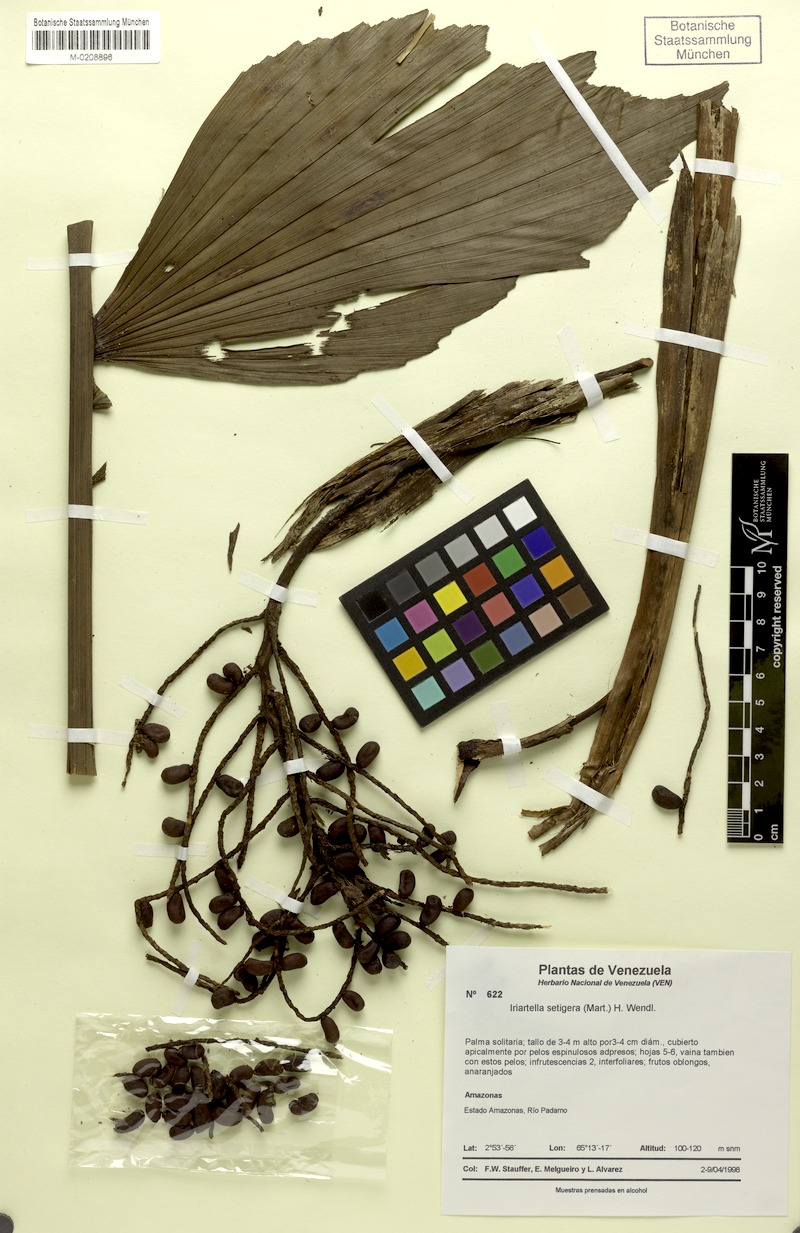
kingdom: Plantae
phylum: Tracheophyta
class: Liliopsida
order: Arecales
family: Arecaceae
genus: Iriartella
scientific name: Iriartella setigera
